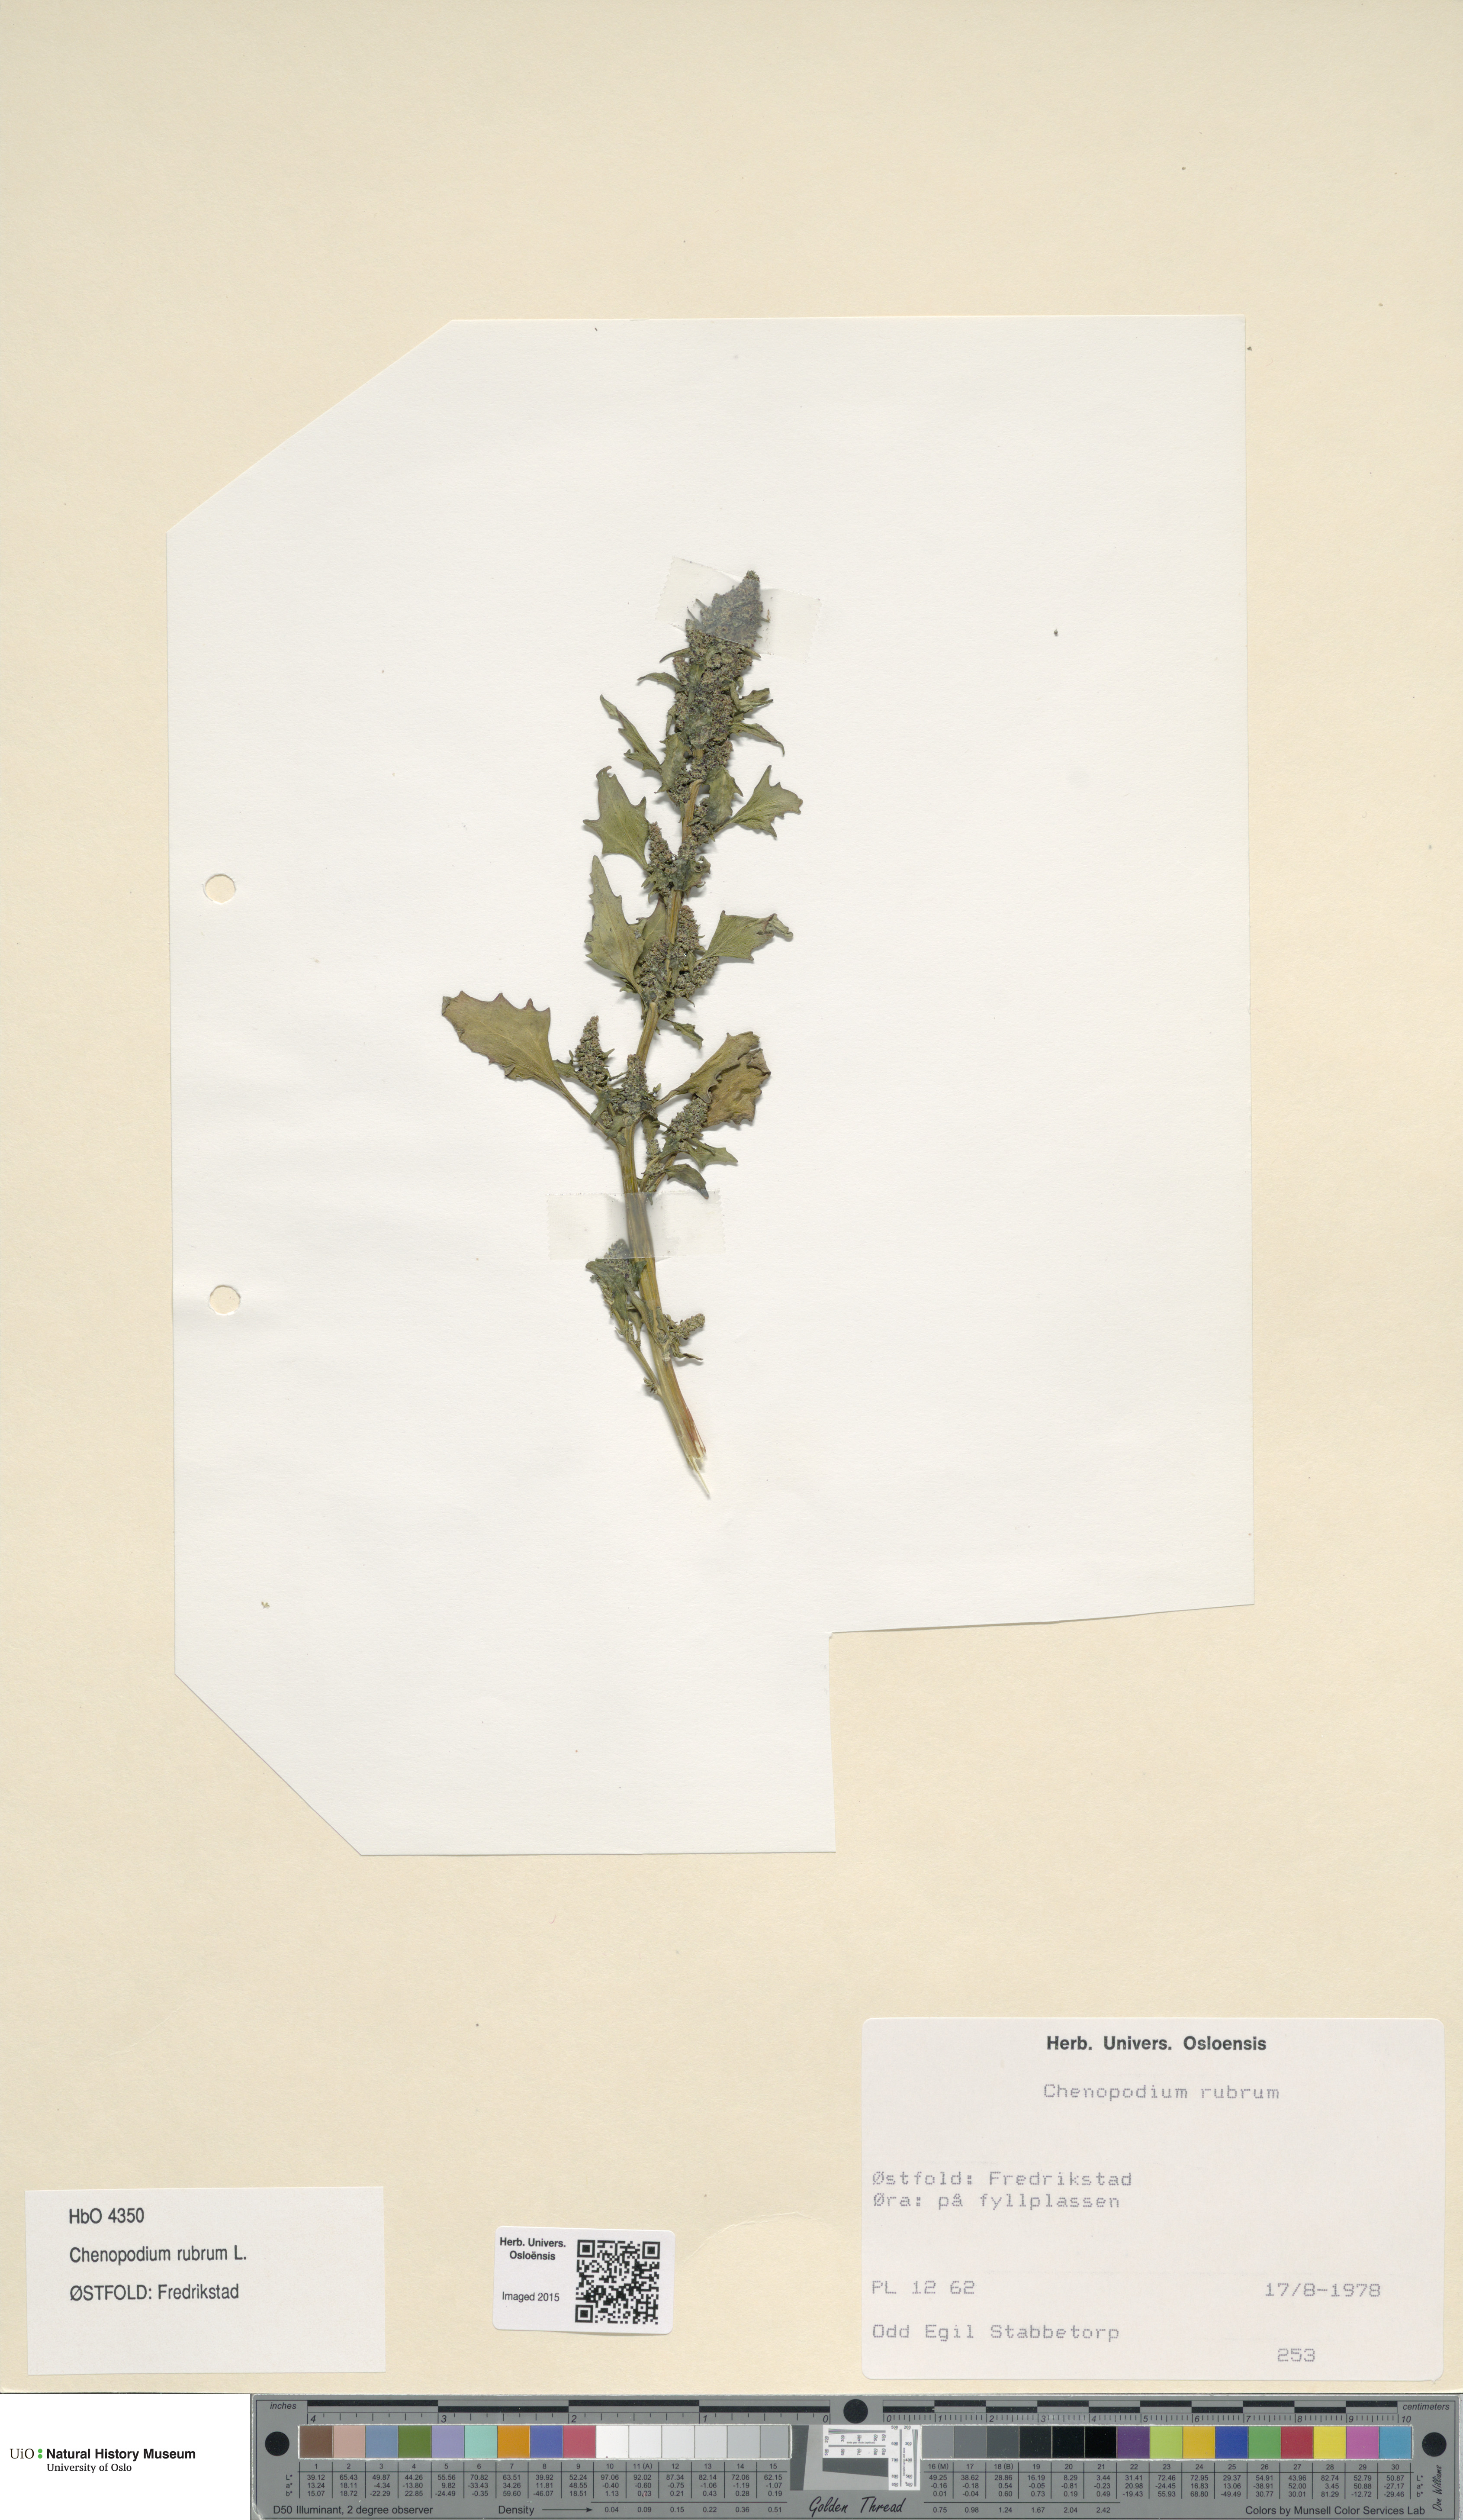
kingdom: Plantae
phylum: Tracheophyta
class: Magnoliopsida
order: Caryophyllales
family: Amaranthaceae
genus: Oxybasis
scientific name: Oxybasis rubra
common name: Red goosefoot
